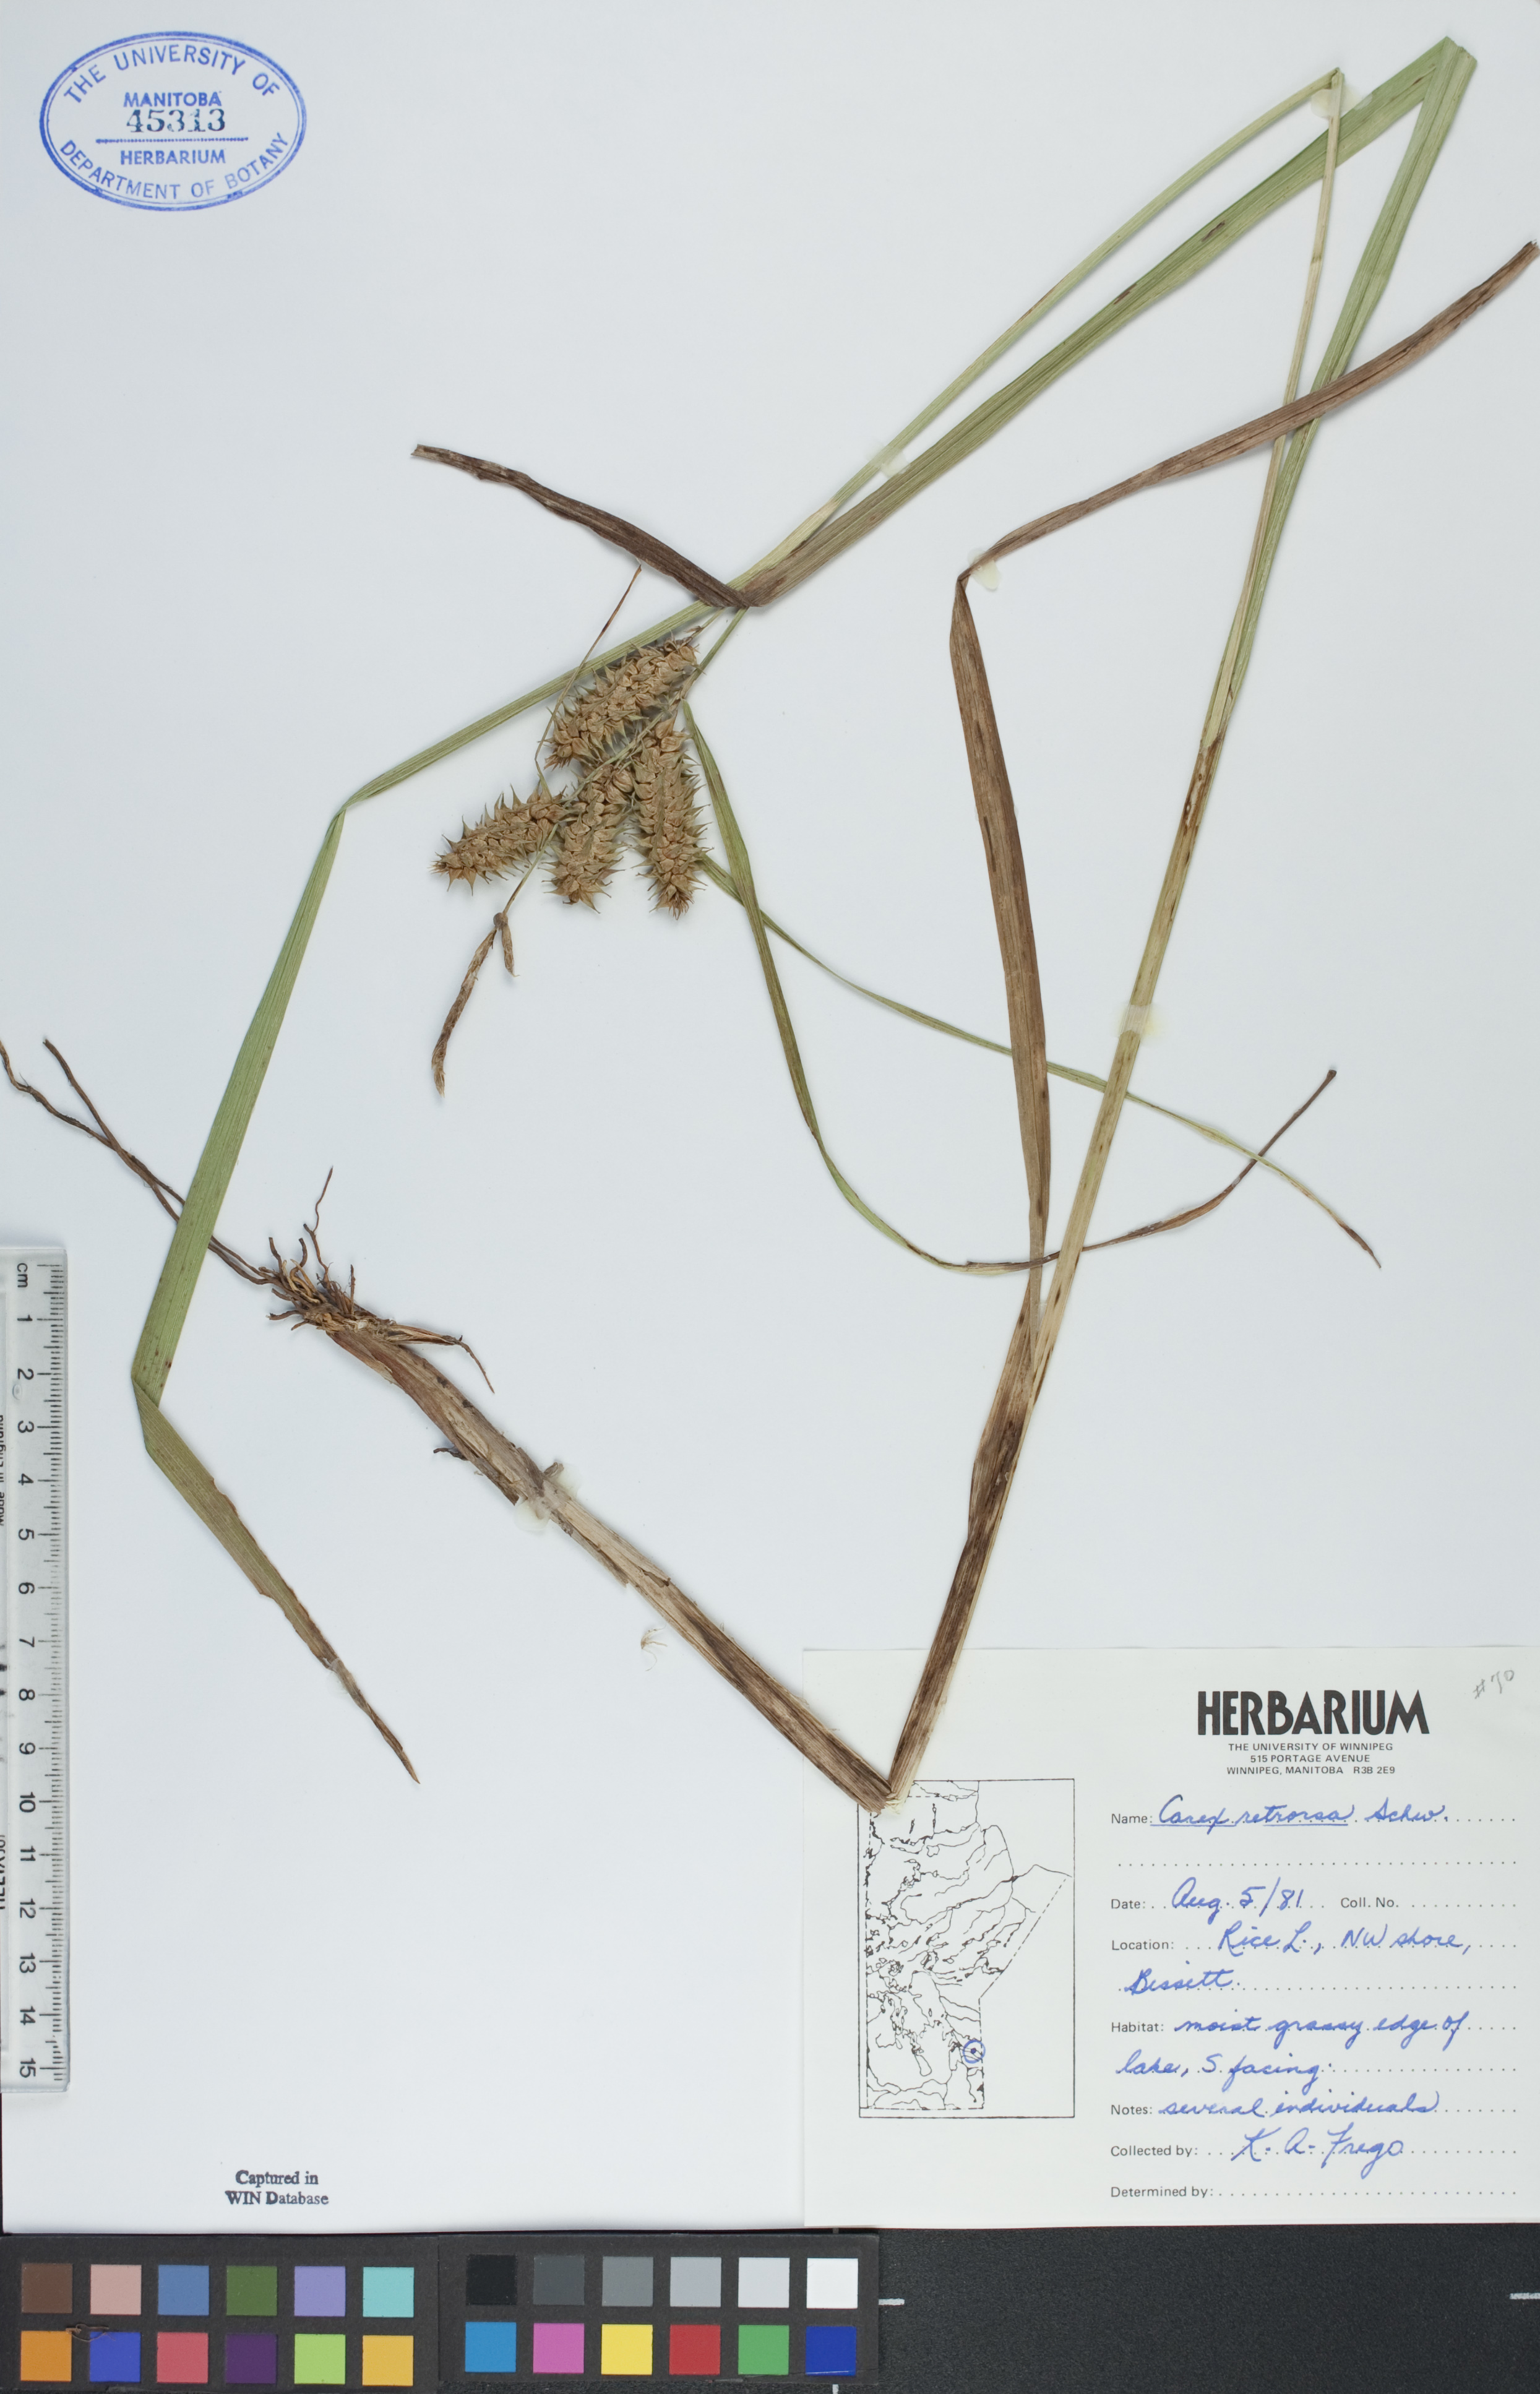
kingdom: Plantae
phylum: Tracheophyta
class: Liliopsida
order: Poales
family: Cyperaceae
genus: Carex
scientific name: Carex retrorsa
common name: Knot-sheath sedge
